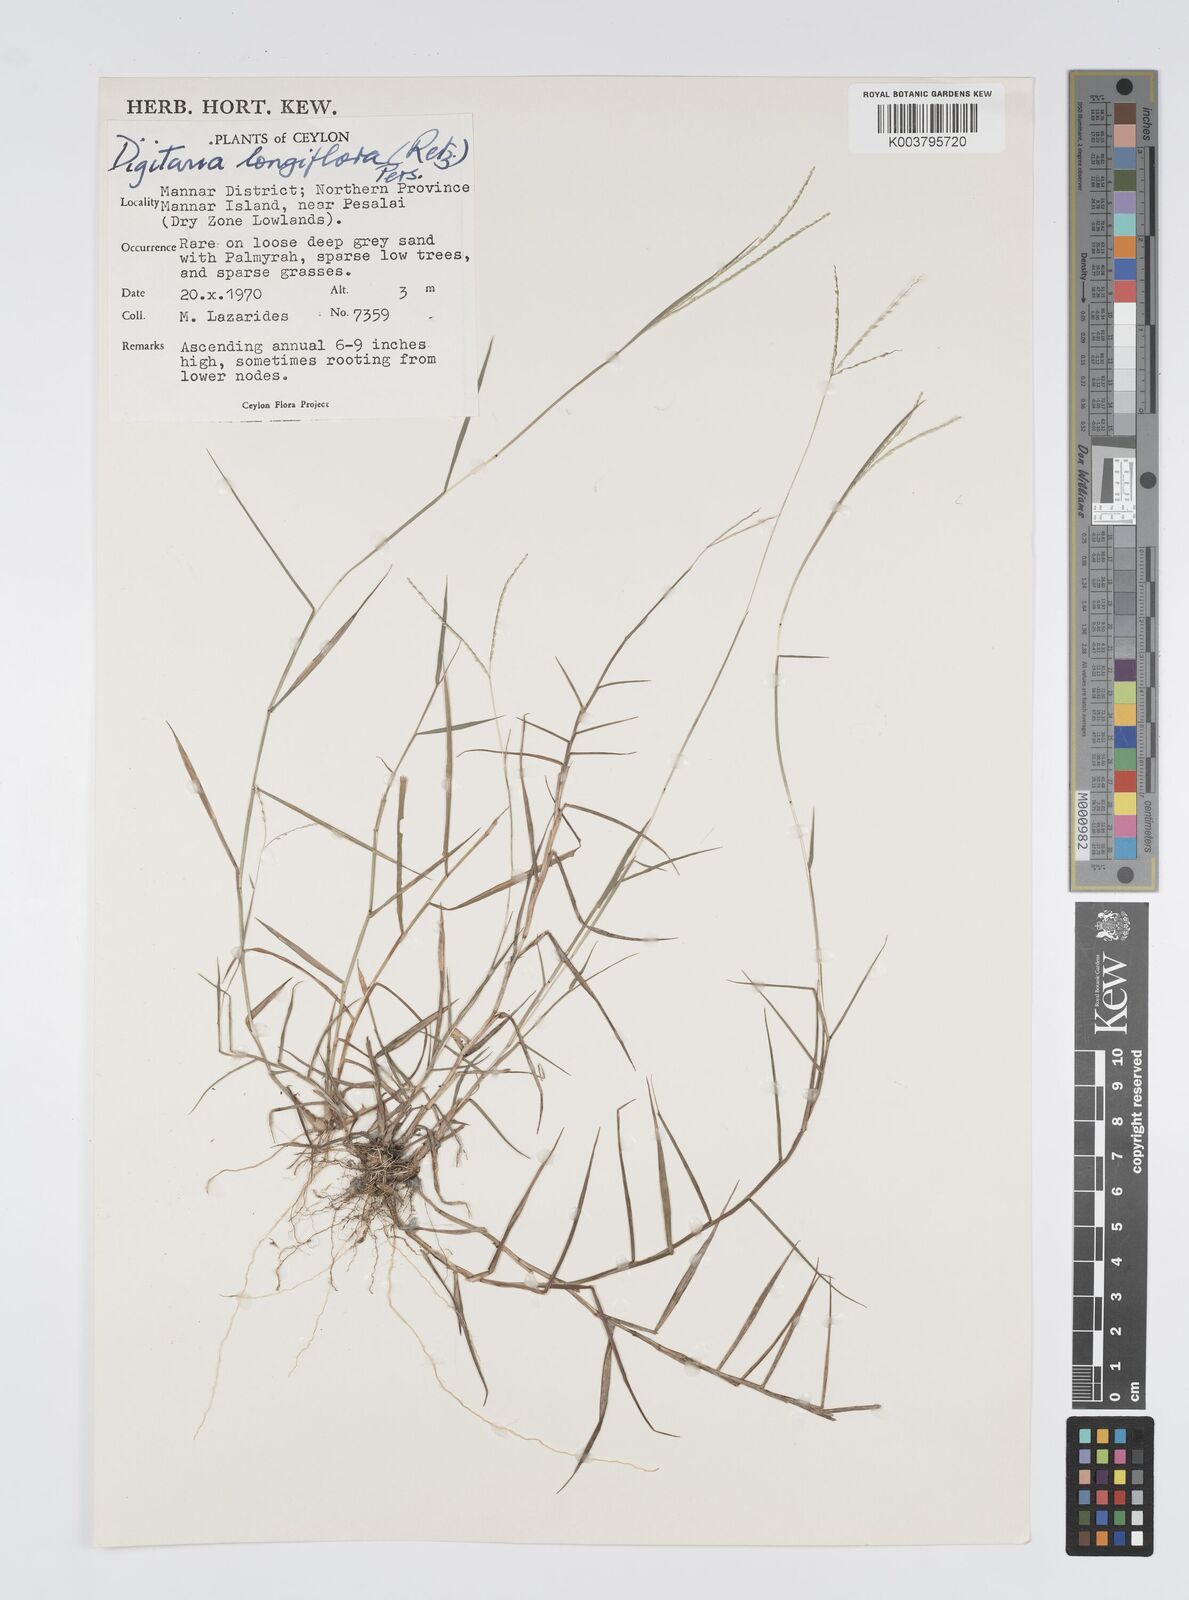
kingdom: Plantae
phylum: Tracheophyta
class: Liliopsida
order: Poales
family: Poaceae
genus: Digitaria
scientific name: Digitaria longiflora
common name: Wire crabgrass
